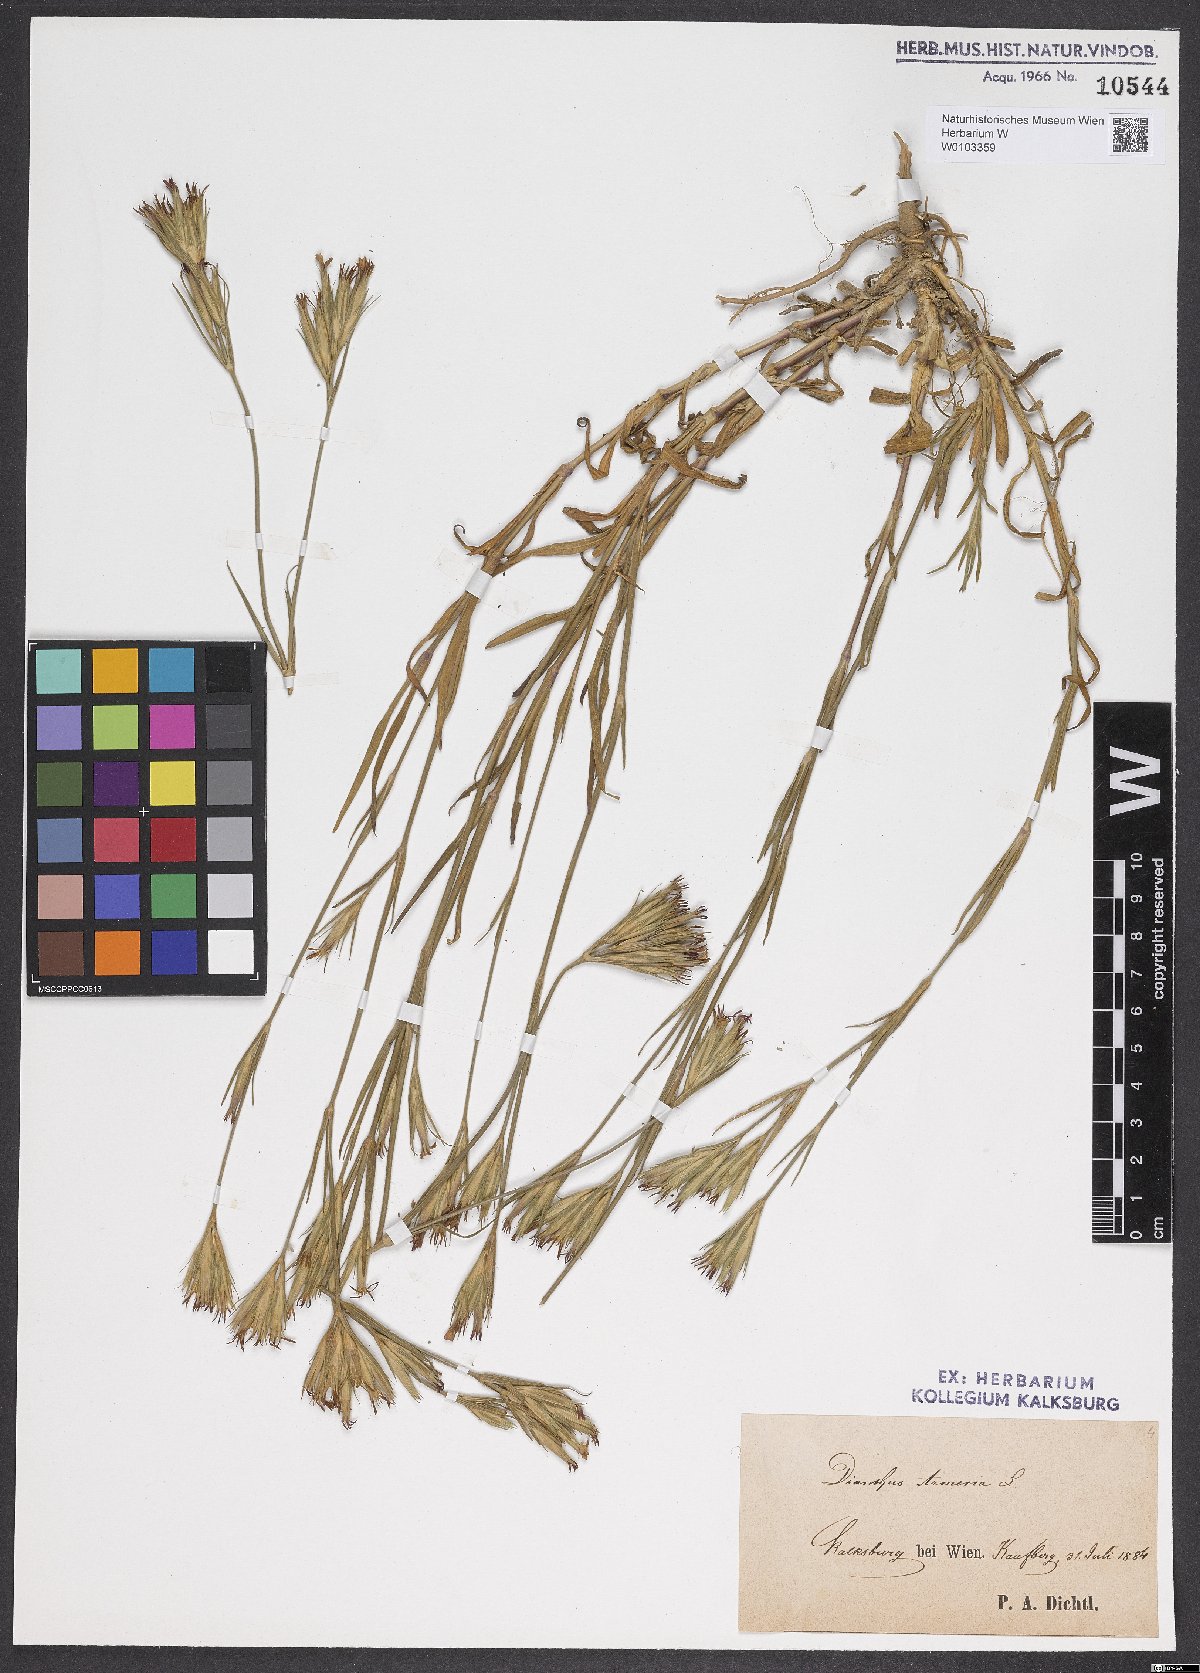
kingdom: Plantae
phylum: Tracheophyta
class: Magnoliopsida
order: Caryophyllales
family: Caryophyllaceae
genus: Dianthus
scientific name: Dianthus armeria
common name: Deptford pink
